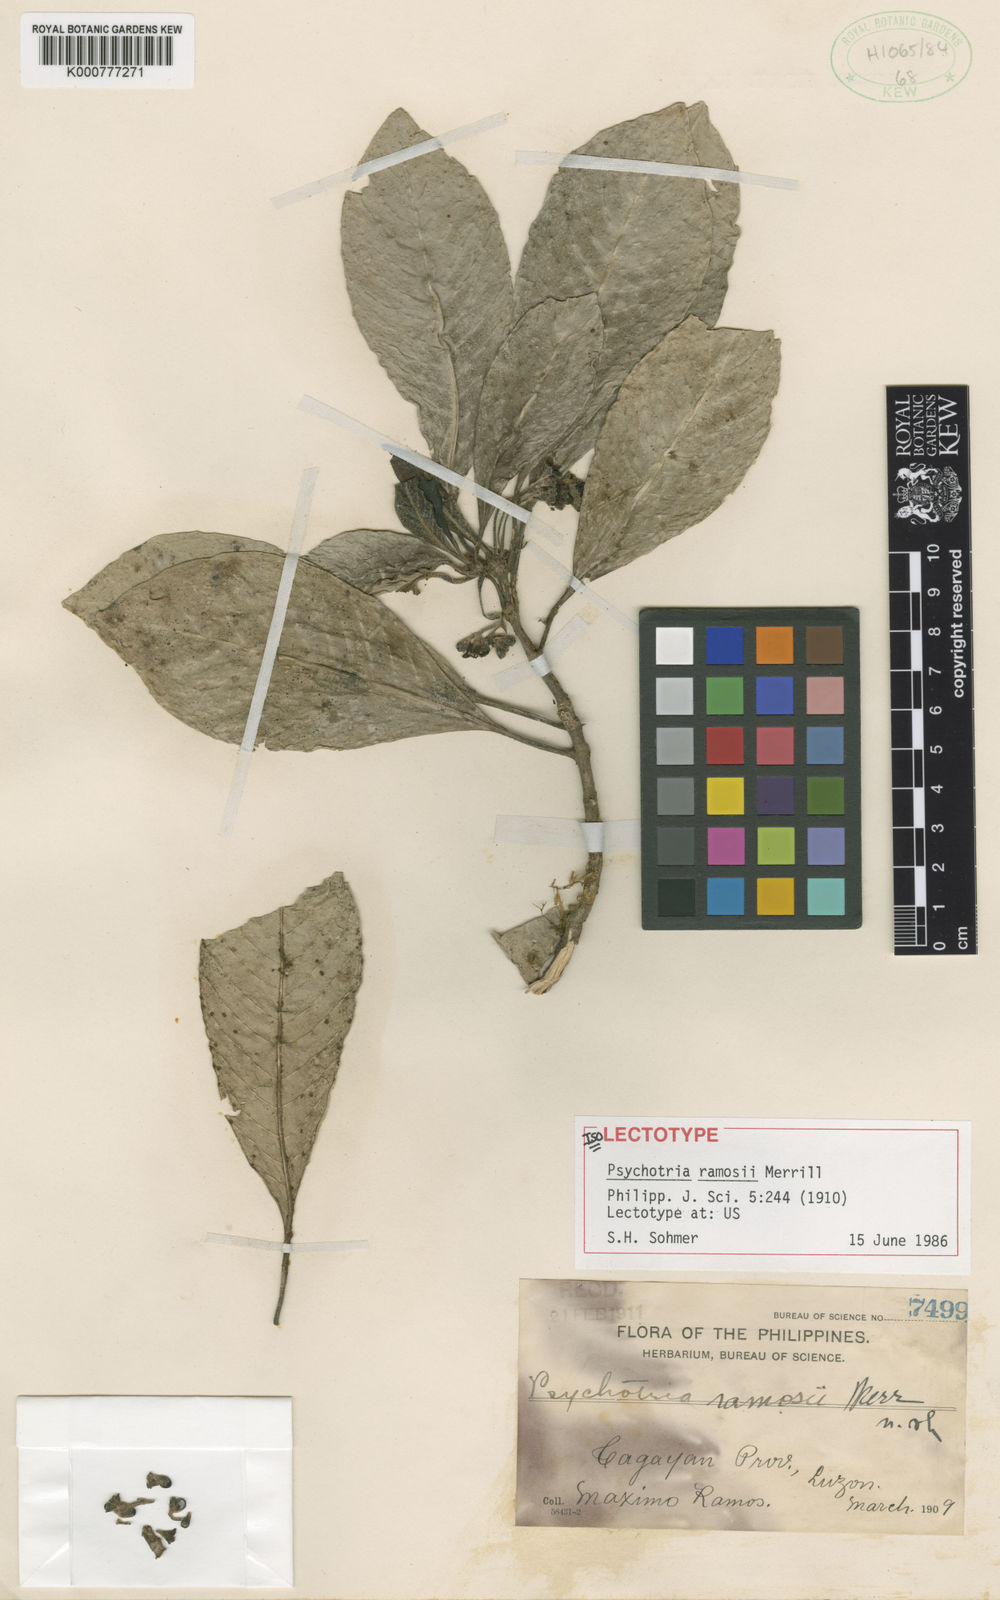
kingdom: Plantae
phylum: Tracheophyta
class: Magnoliopsida
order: Gentianales
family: Rubiaceae
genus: Psychotria
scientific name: Psychotria ramosii
